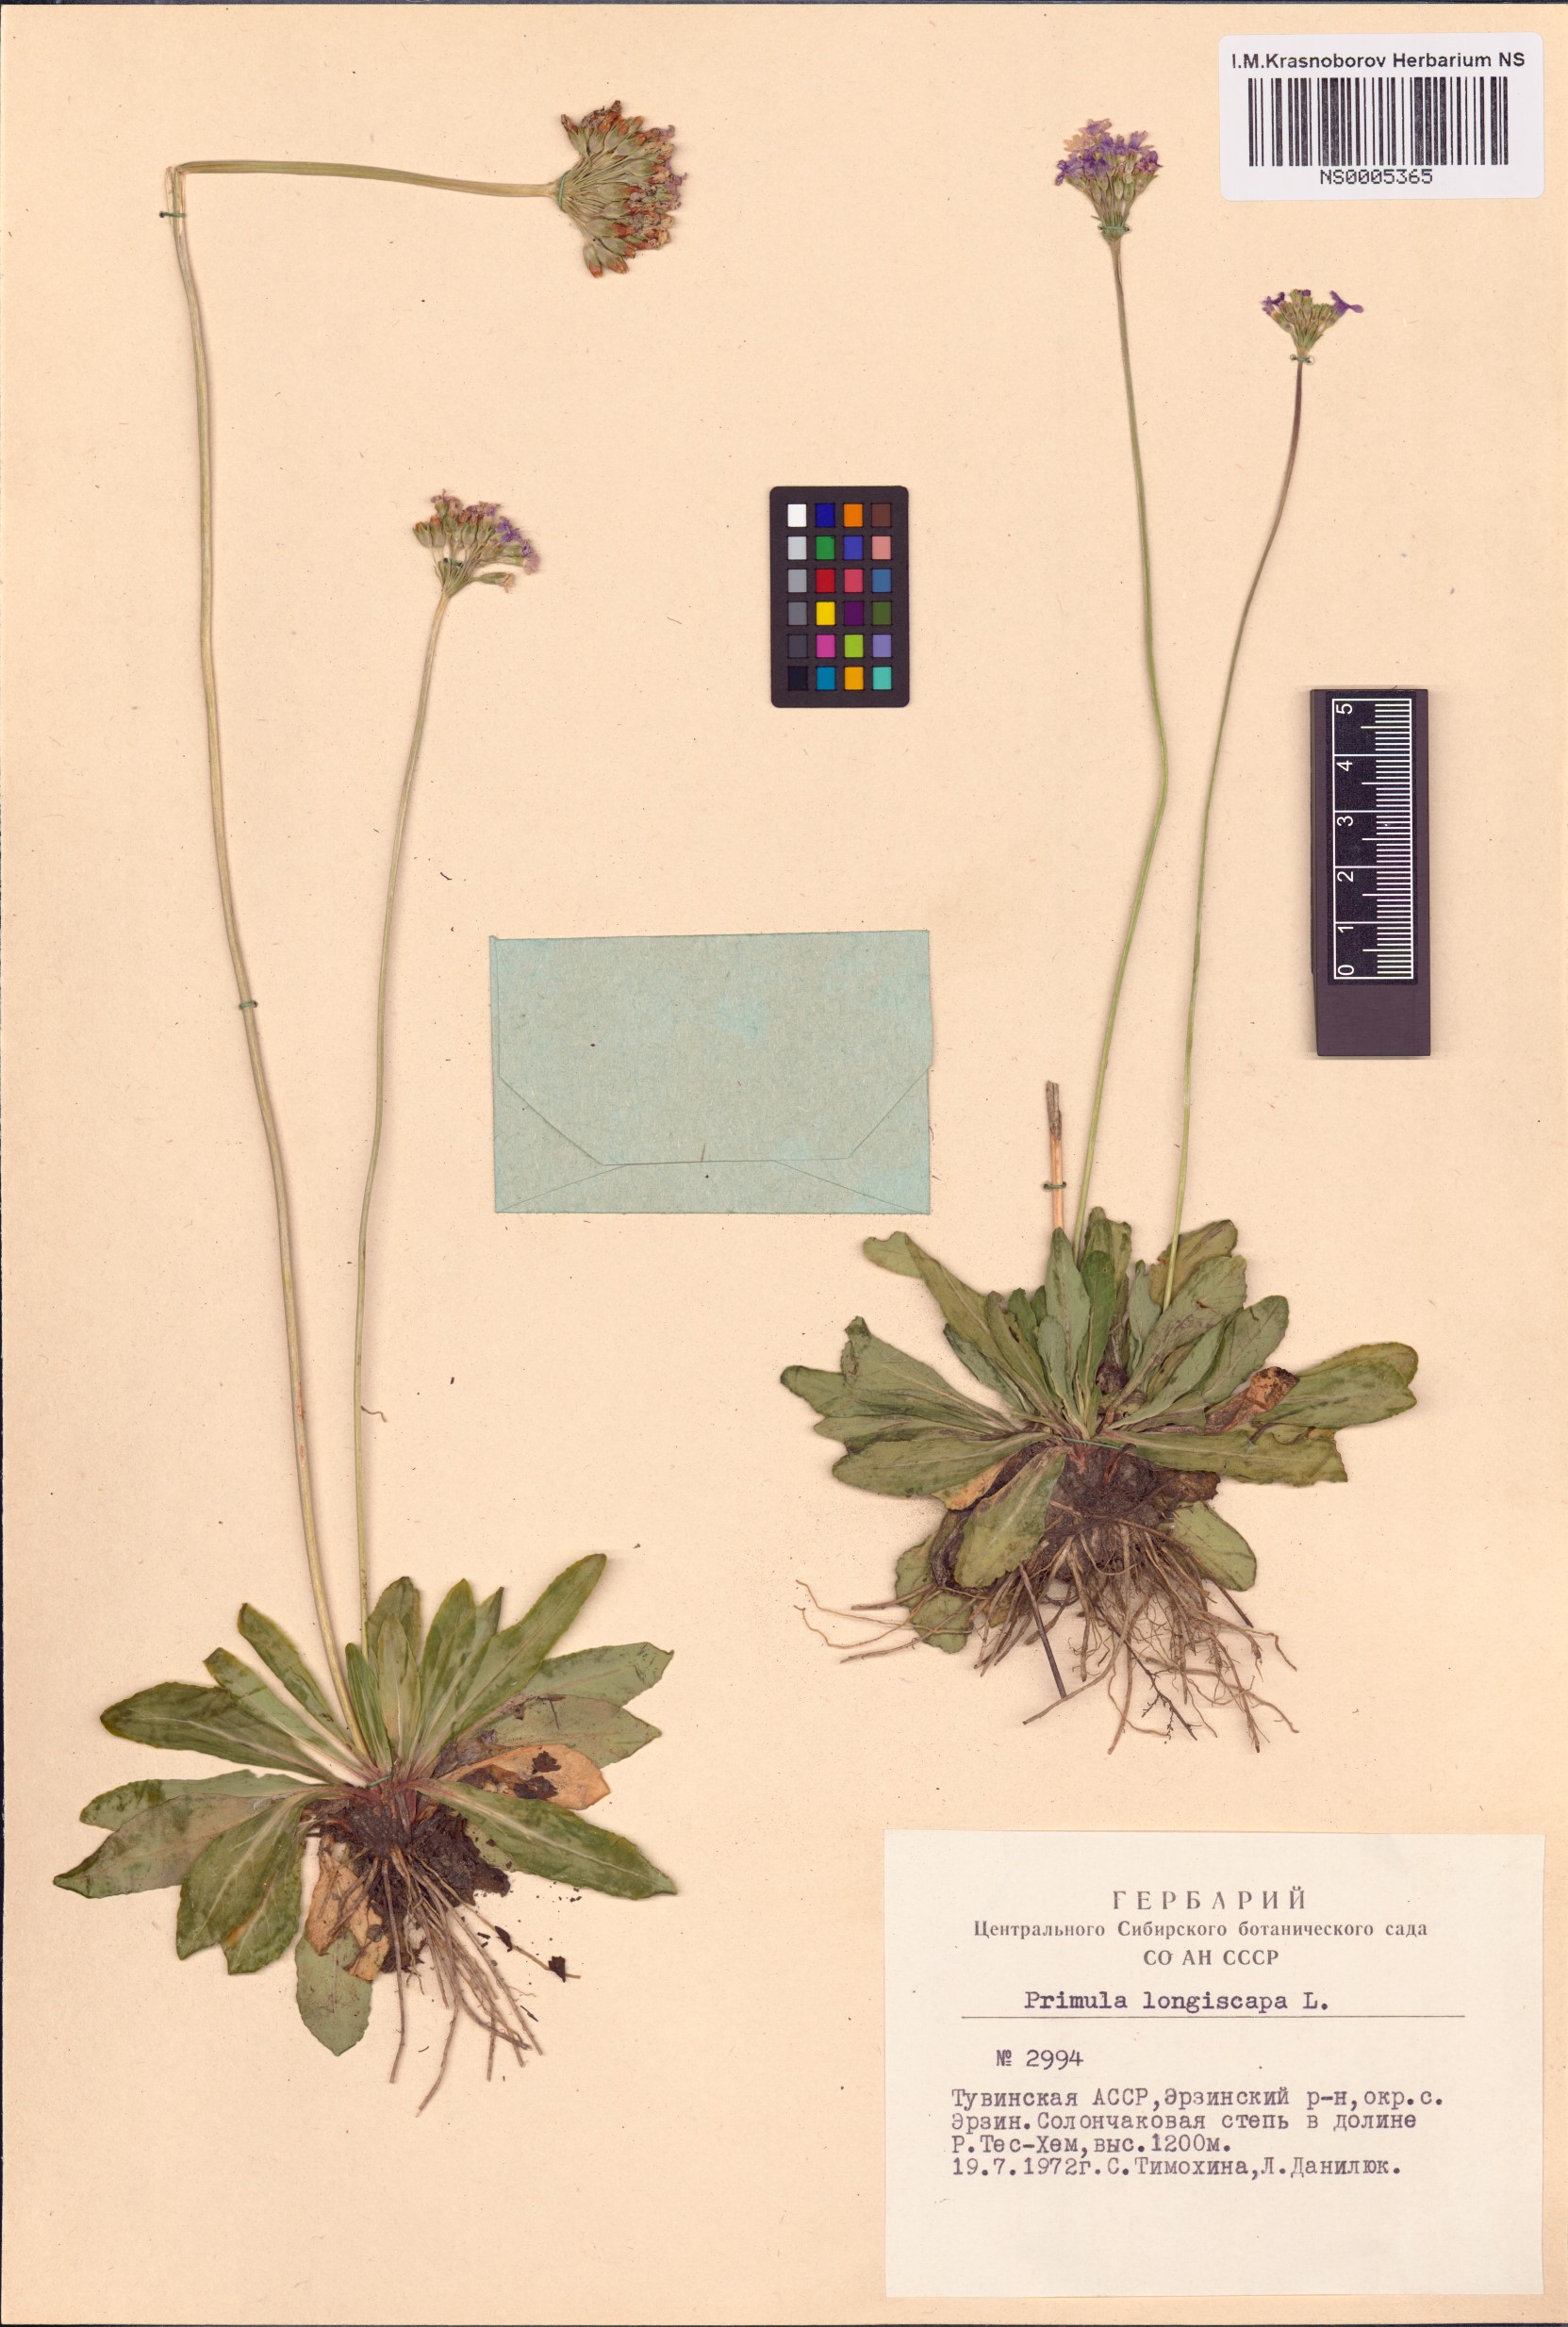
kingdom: Plantae
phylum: Tracheophyta
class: Magnoliopsida
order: Ericales
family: Primulaceae
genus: Primula
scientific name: Primula longiscapa
